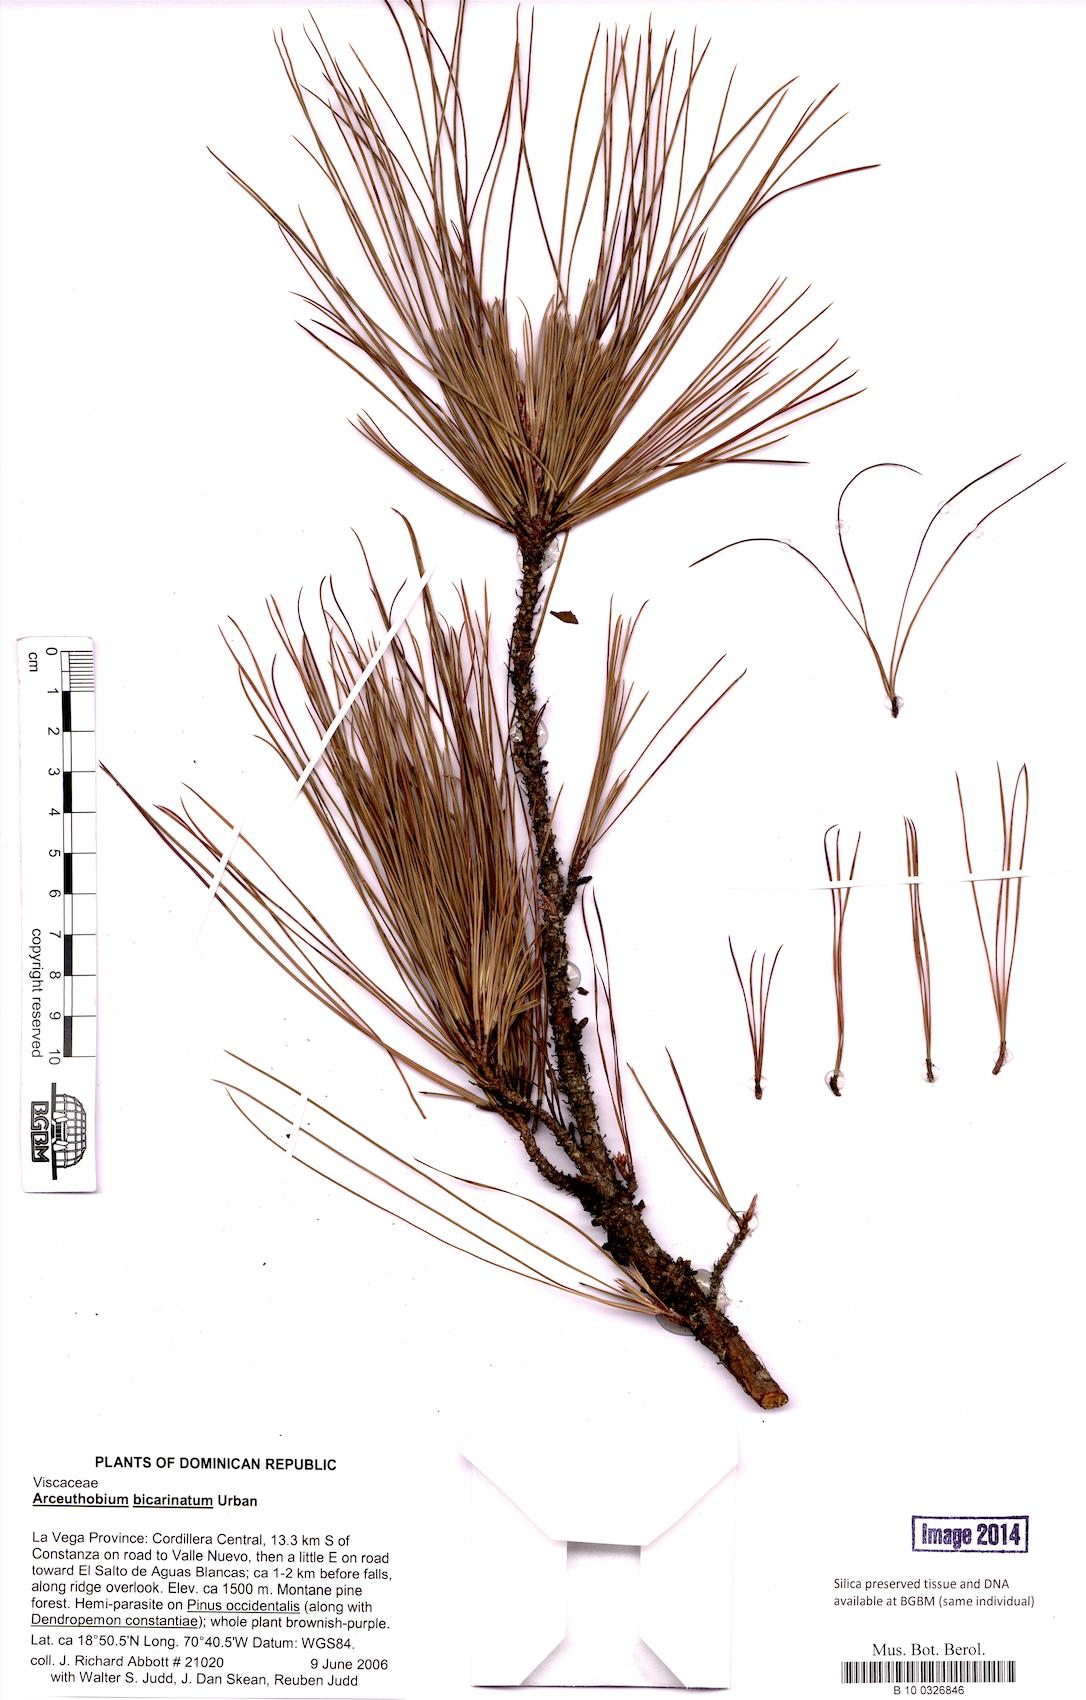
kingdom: Plantae
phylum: Tracheophyta
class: Magnoliopsida
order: Santalales
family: Viscaceae
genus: Arceuthobium
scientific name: Arceuthobium bicarinatum
